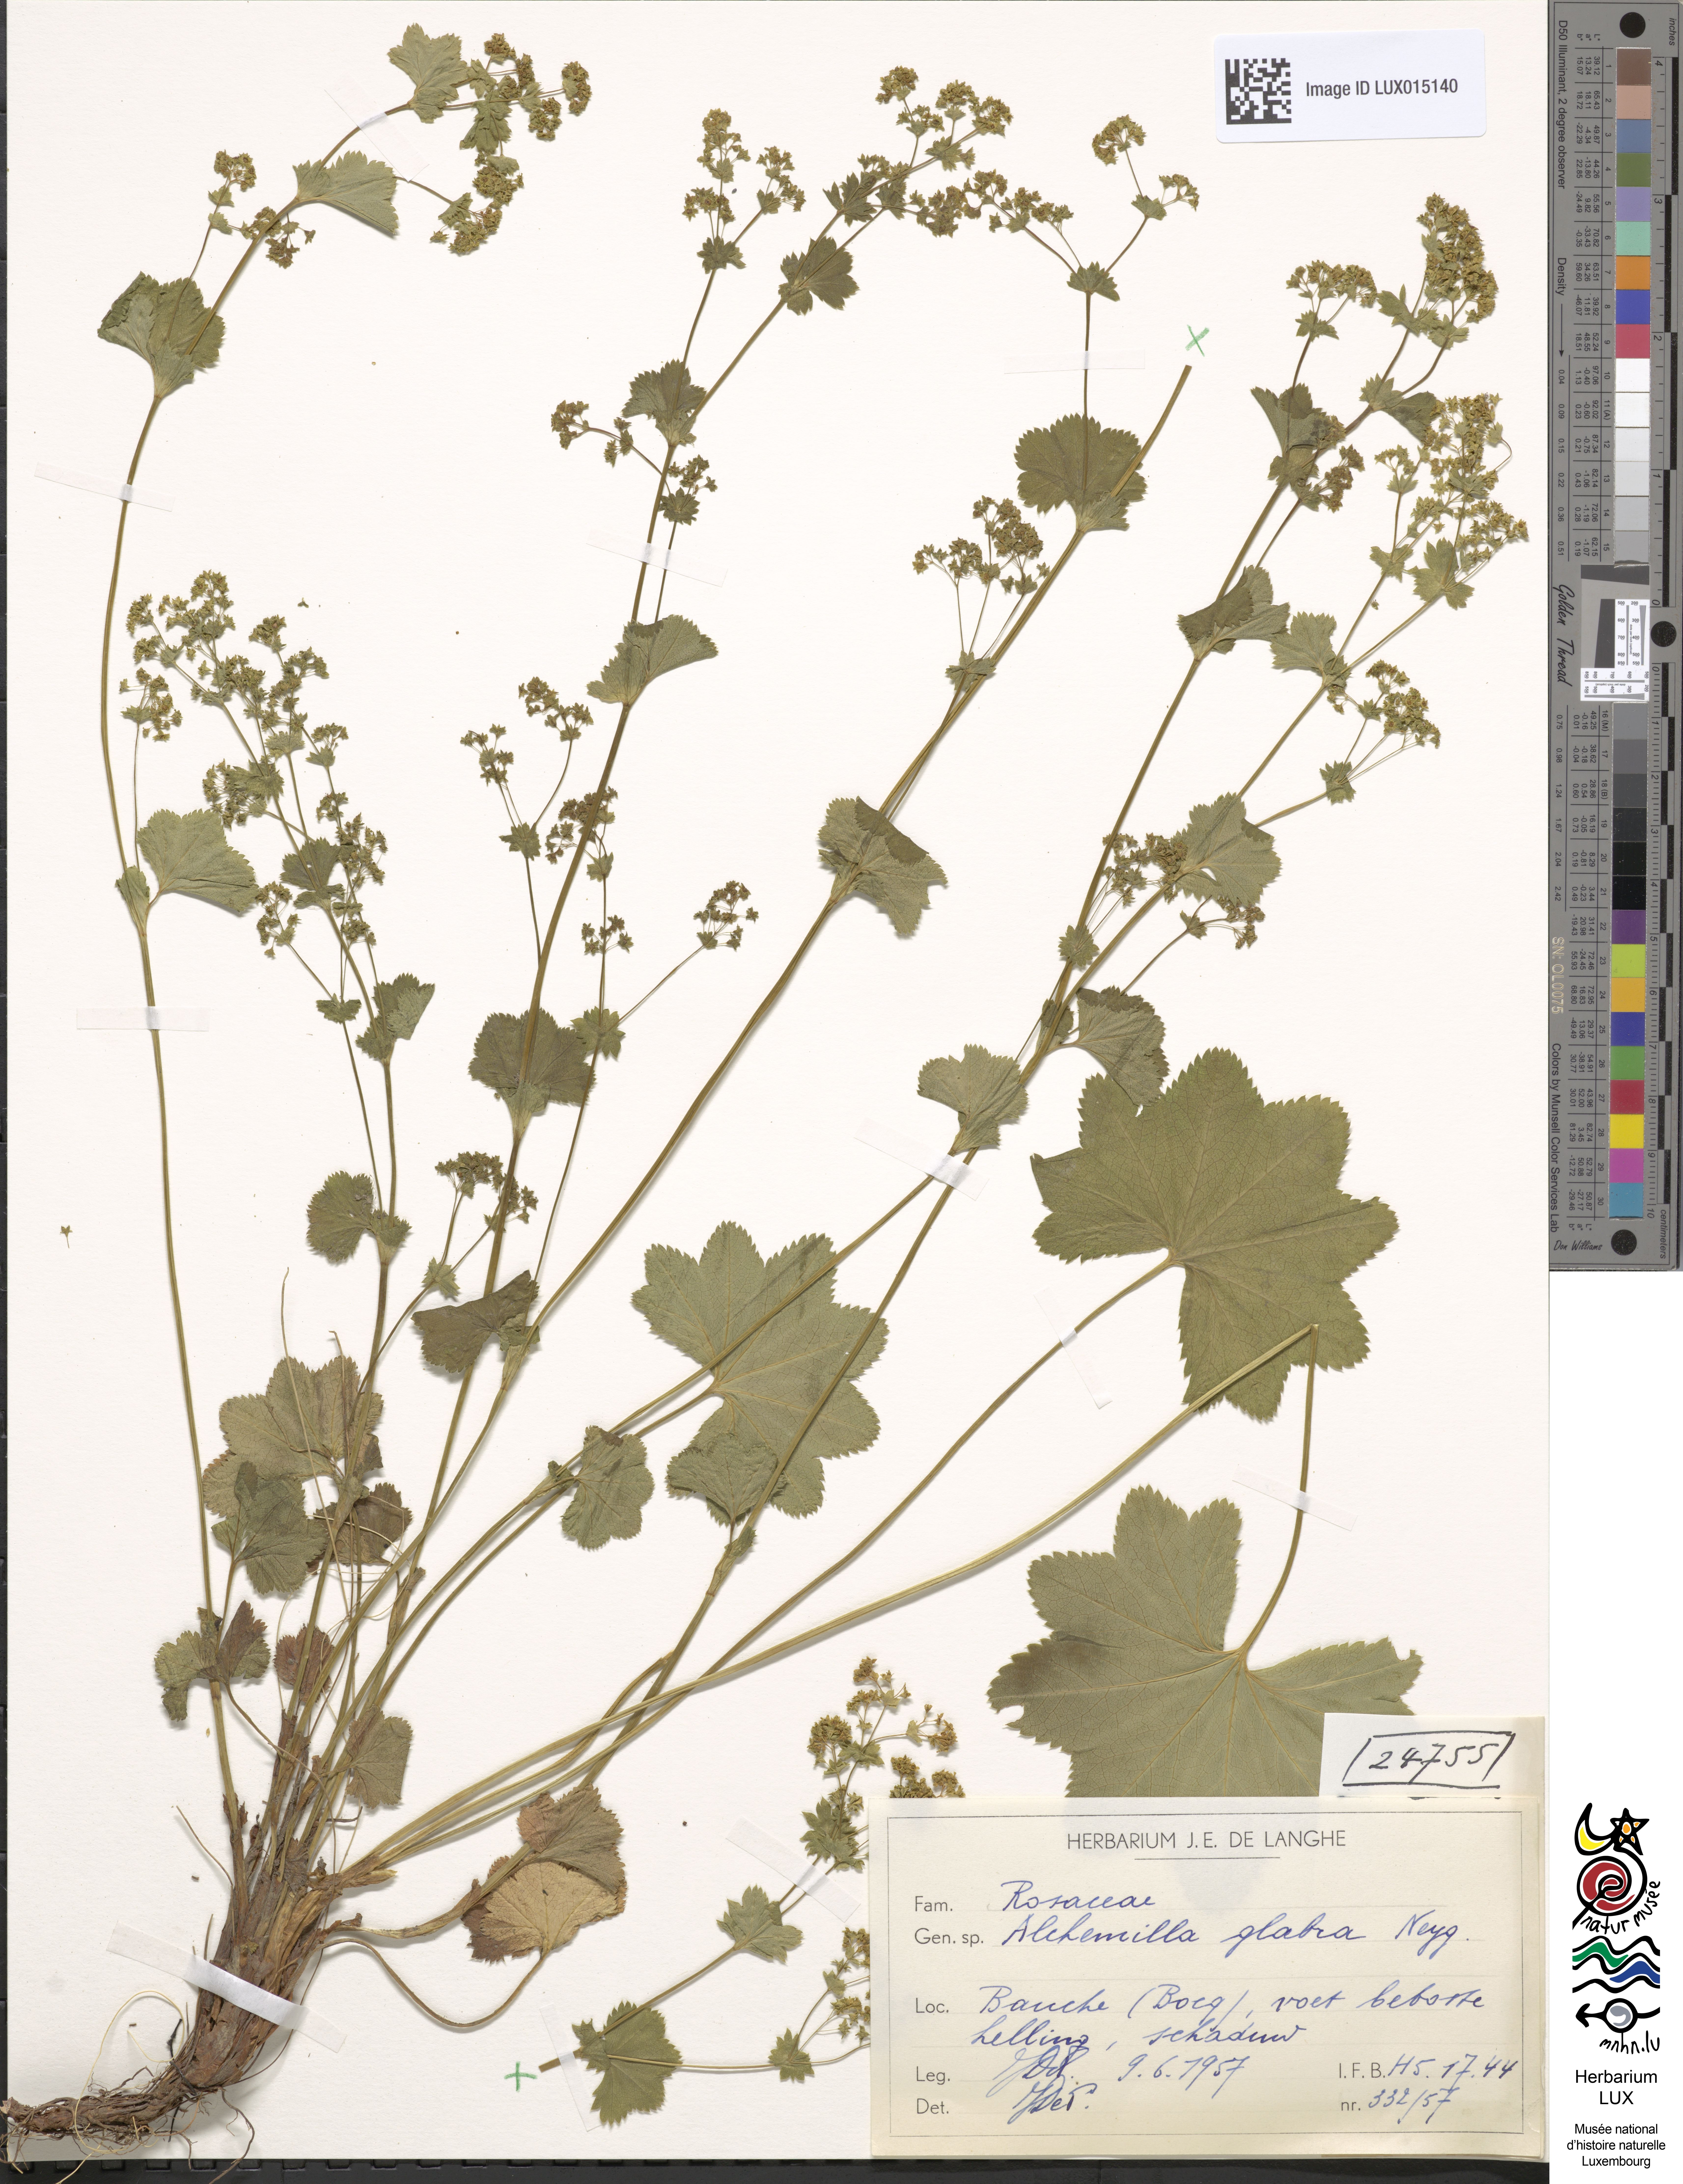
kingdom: Plantae
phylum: Tracheophyta
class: Magnoliopsida
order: Rosales
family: Rosaceae
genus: Alchemilla
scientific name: Alchemilla glabra
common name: Smooth lady's-mantle
